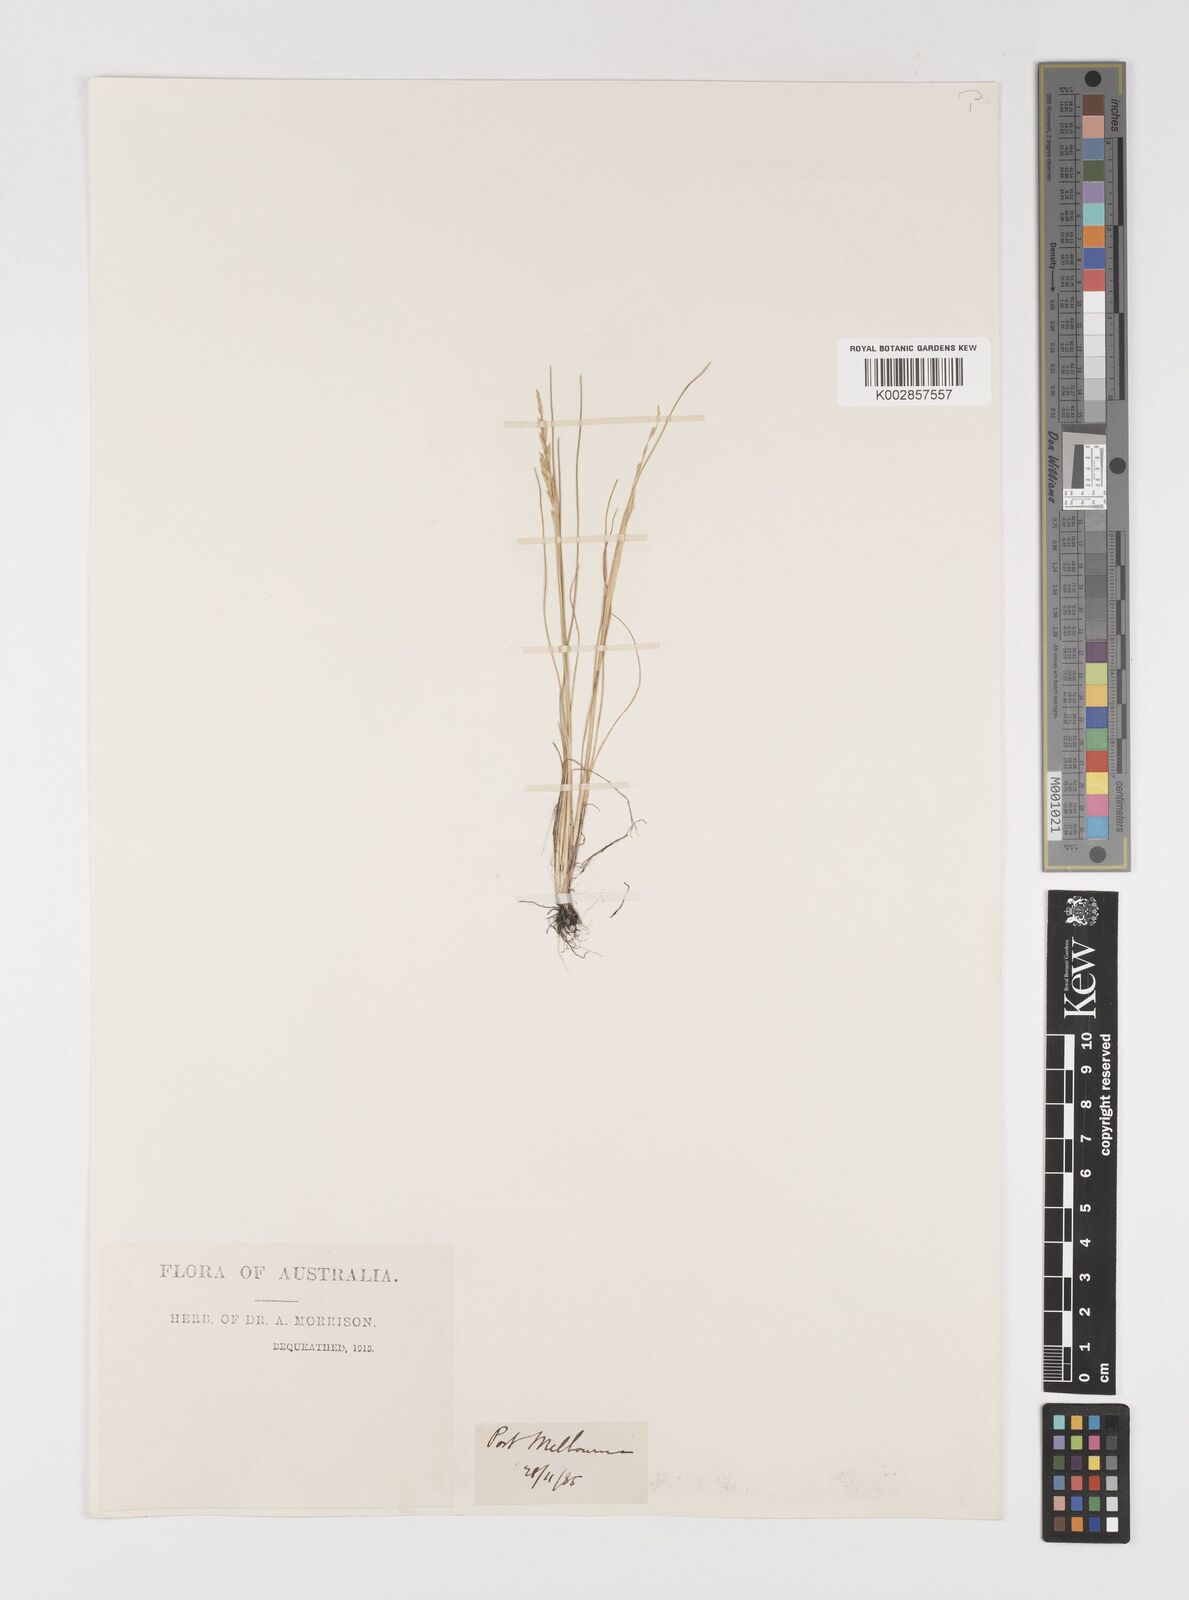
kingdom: Plantae
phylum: Tracheophyta
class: Liliopsida
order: Poales
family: Poaceae
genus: Puccinellia
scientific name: Puccinellia stricta
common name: Australian saltmarsh grass
